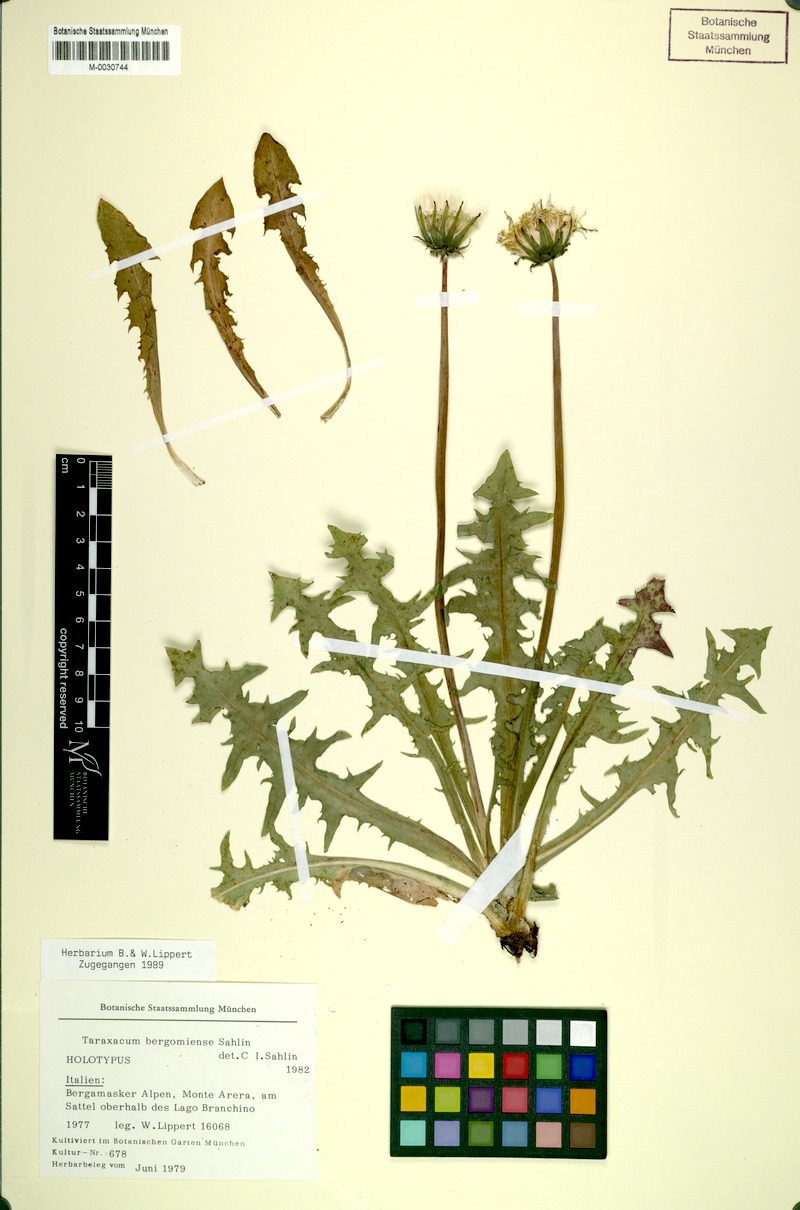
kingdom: Plantae
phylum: Tracheophyta
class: Magnoliopsida
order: Asterales
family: Asteraceae
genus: Taraxacum
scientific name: Taraxacum
